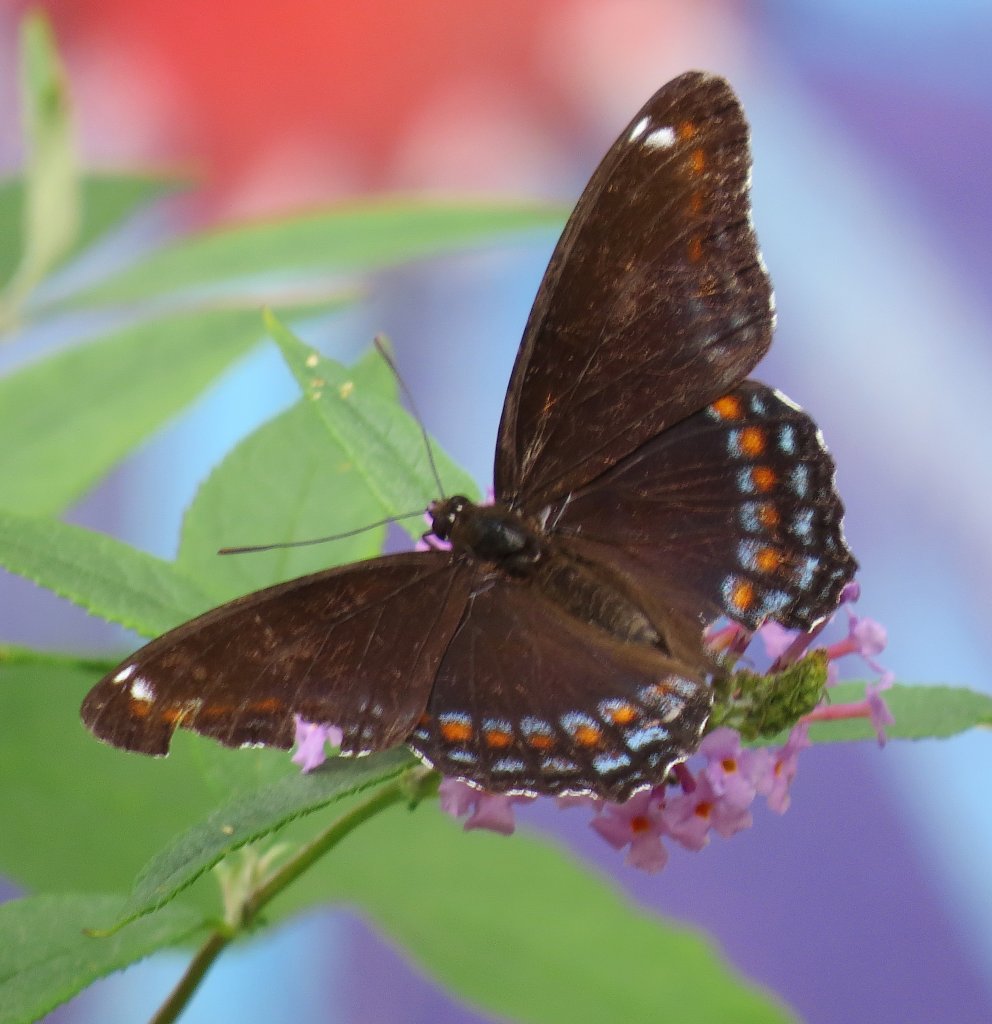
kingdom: Animalia
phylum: Arthropoda
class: Insecta
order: Lepidoptera
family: Nymphalidae
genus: Limenitis
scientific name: Limenitis astyanax
